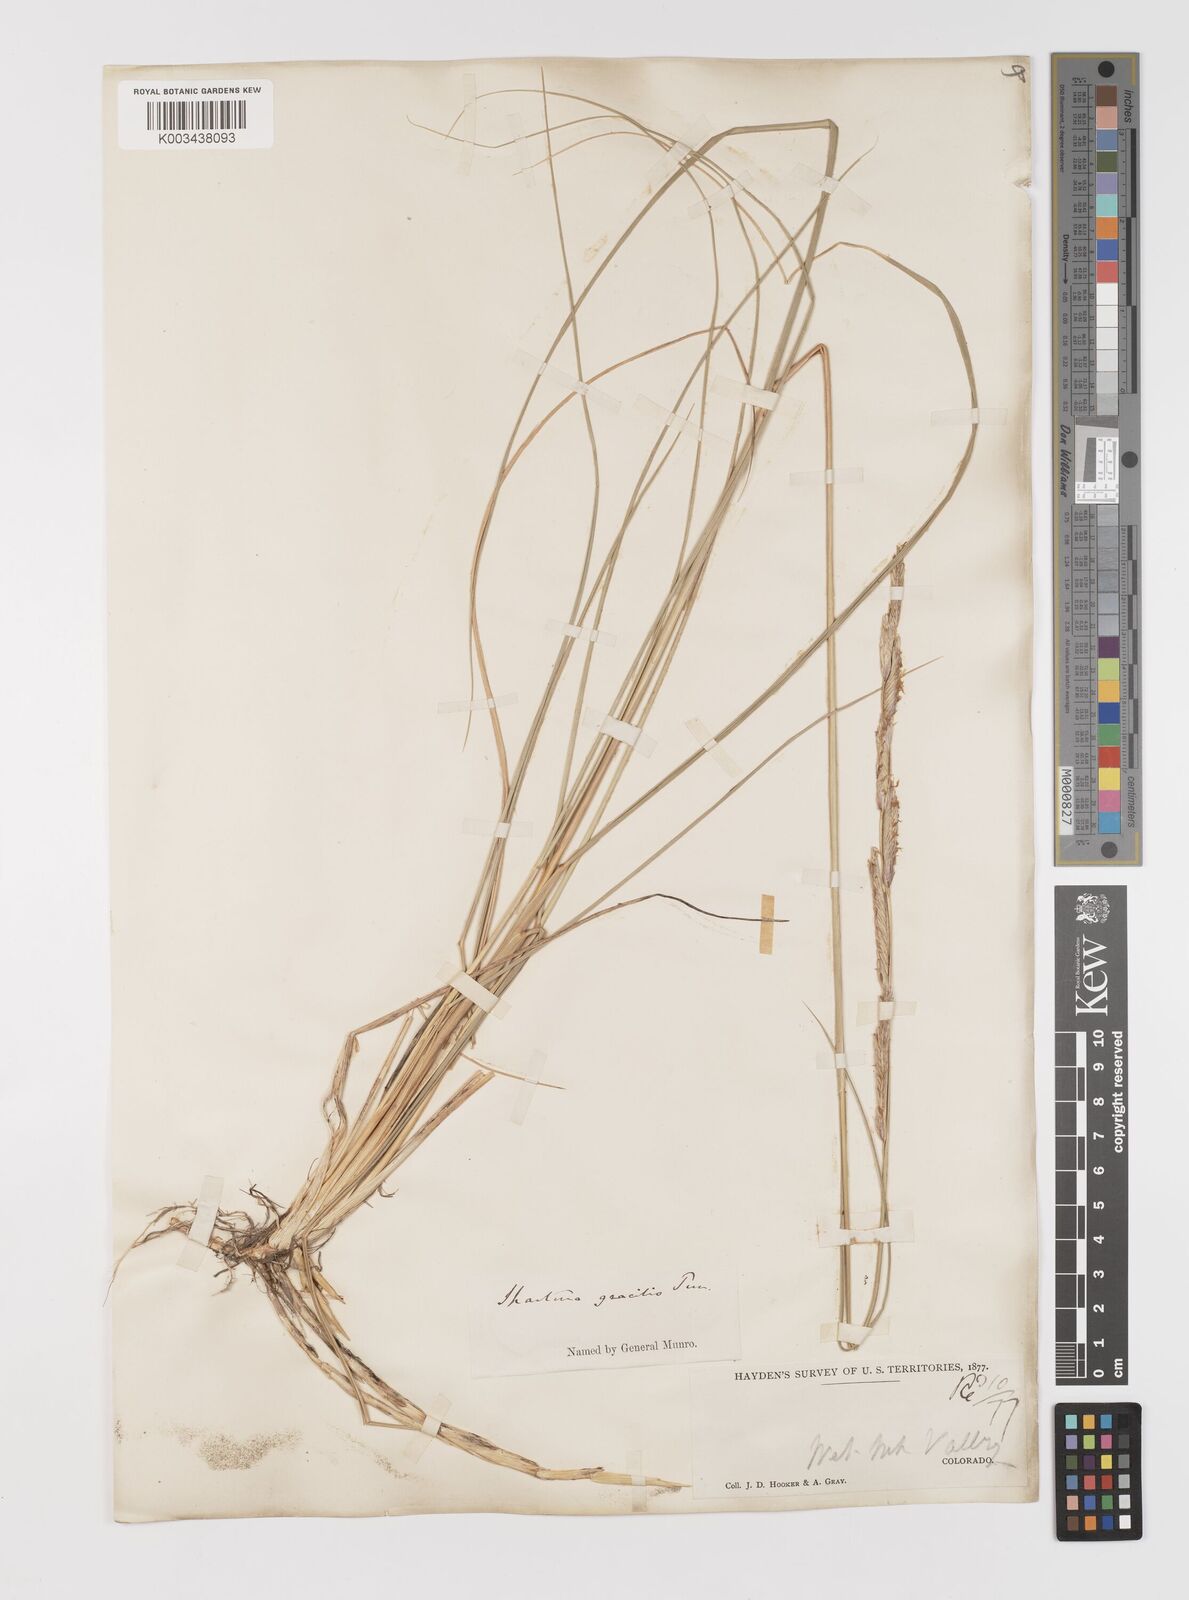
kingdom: Plantae
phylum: Tracheophyta
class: Liliopsida
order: Poales
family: Poaceae
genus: Sporobolus
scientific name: Sporobolus hookerianus
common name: Alkali cordgrass
